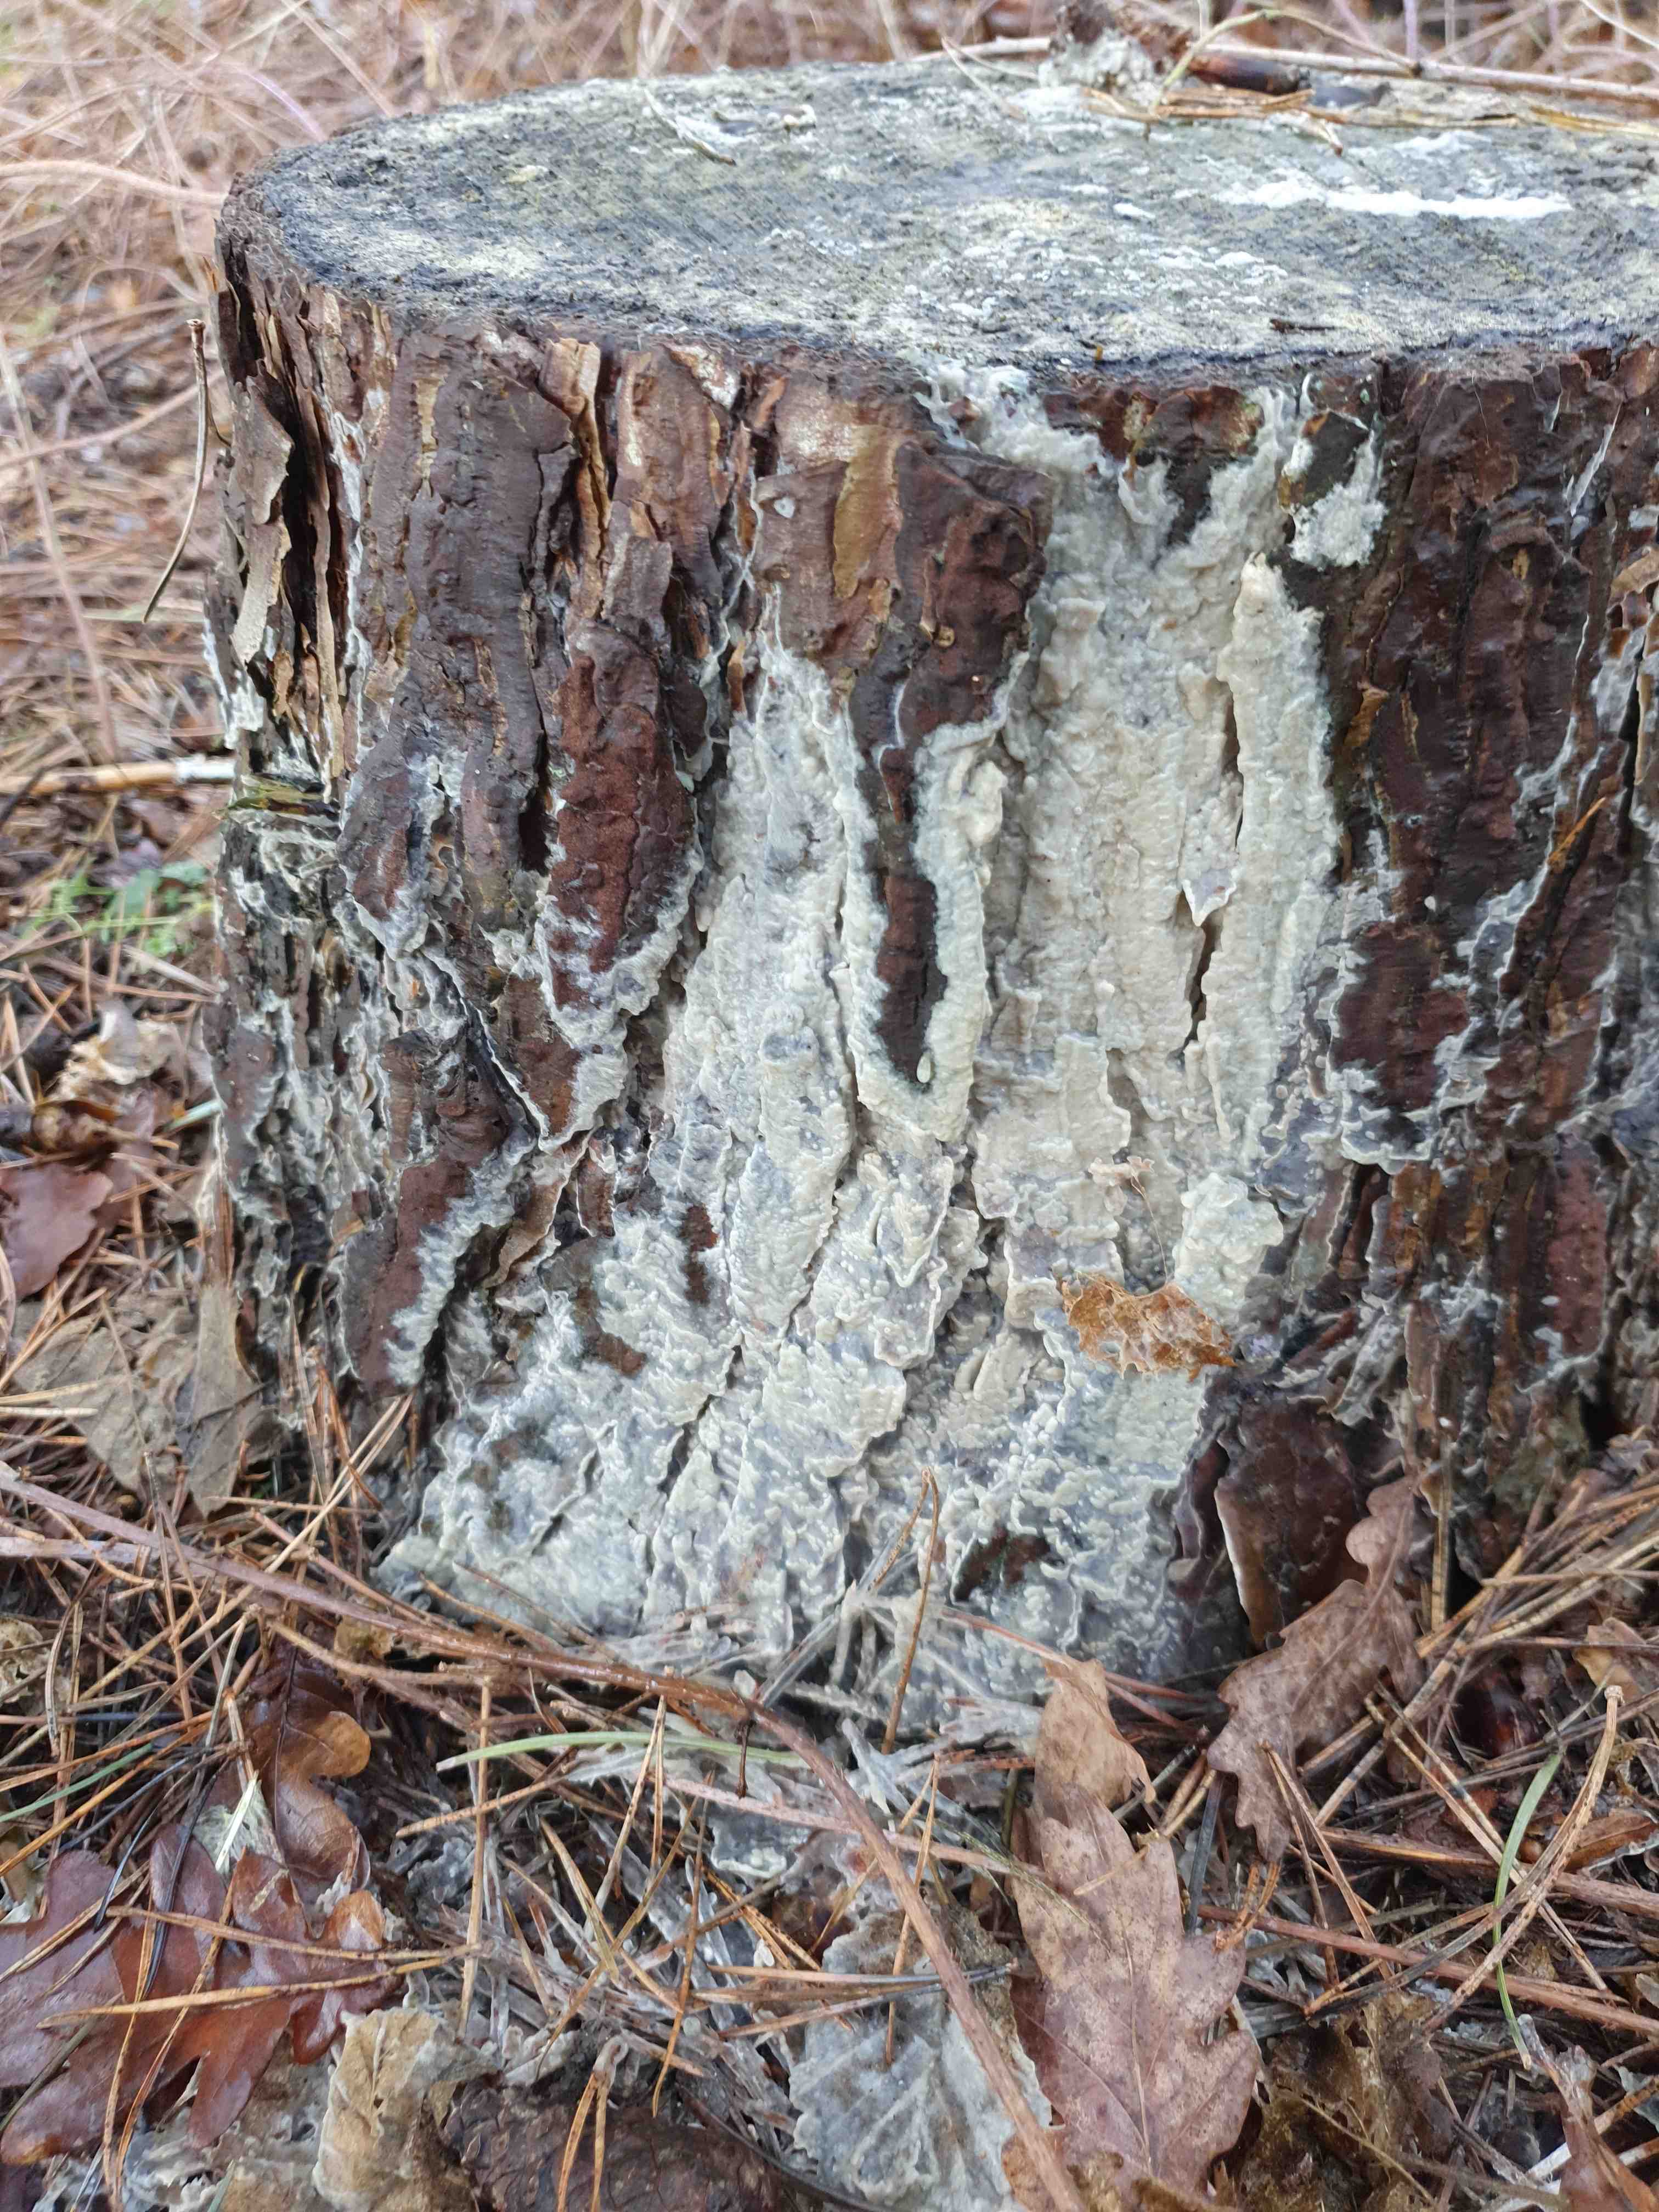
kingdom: Fungi
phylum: Basidiomycota
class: Agaricomycetes
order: Polyporales
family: Phanerochaetaceae
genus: Phlebiopsis
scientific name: Phlebiopsis gigantea
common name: kæmpebarksvamp
